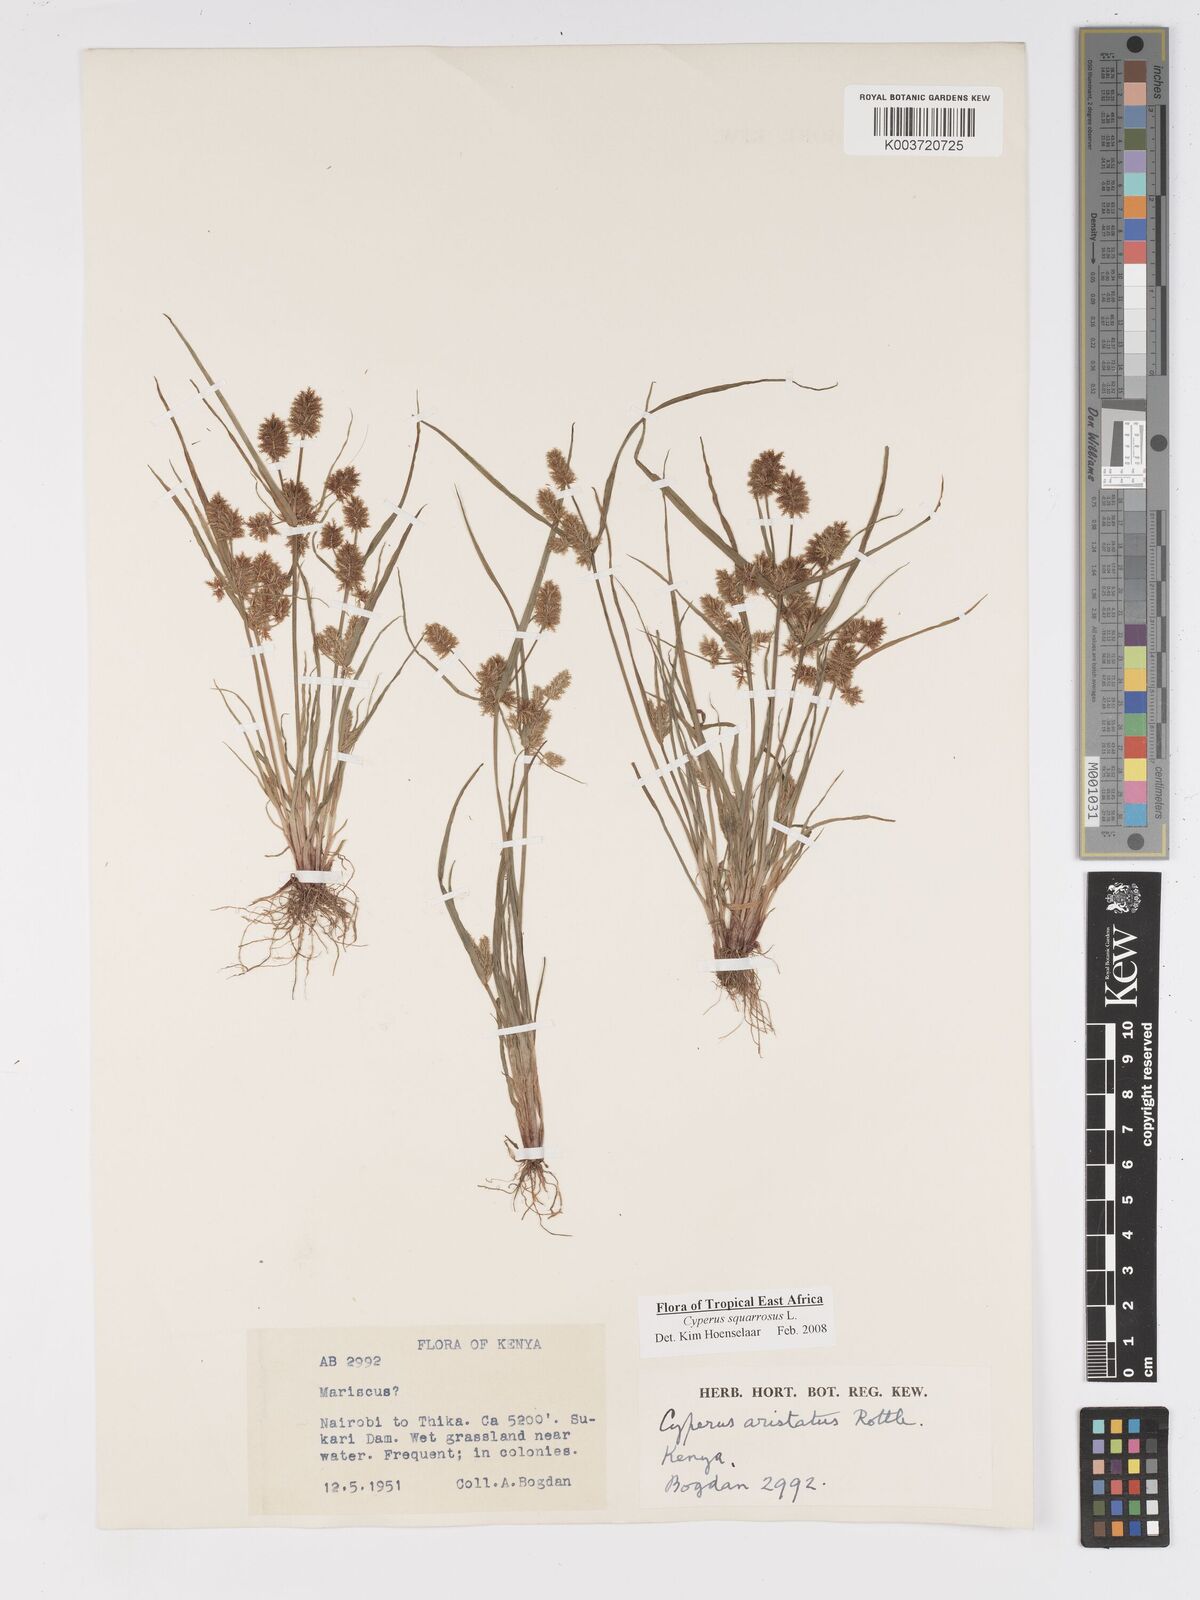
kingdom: Plantae
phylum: Tracheophyta
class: Liliopsida
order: Poales
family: Cyperaceae
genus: Cyperus
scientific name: Cyperus squarrosus
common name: Awned cyperus
